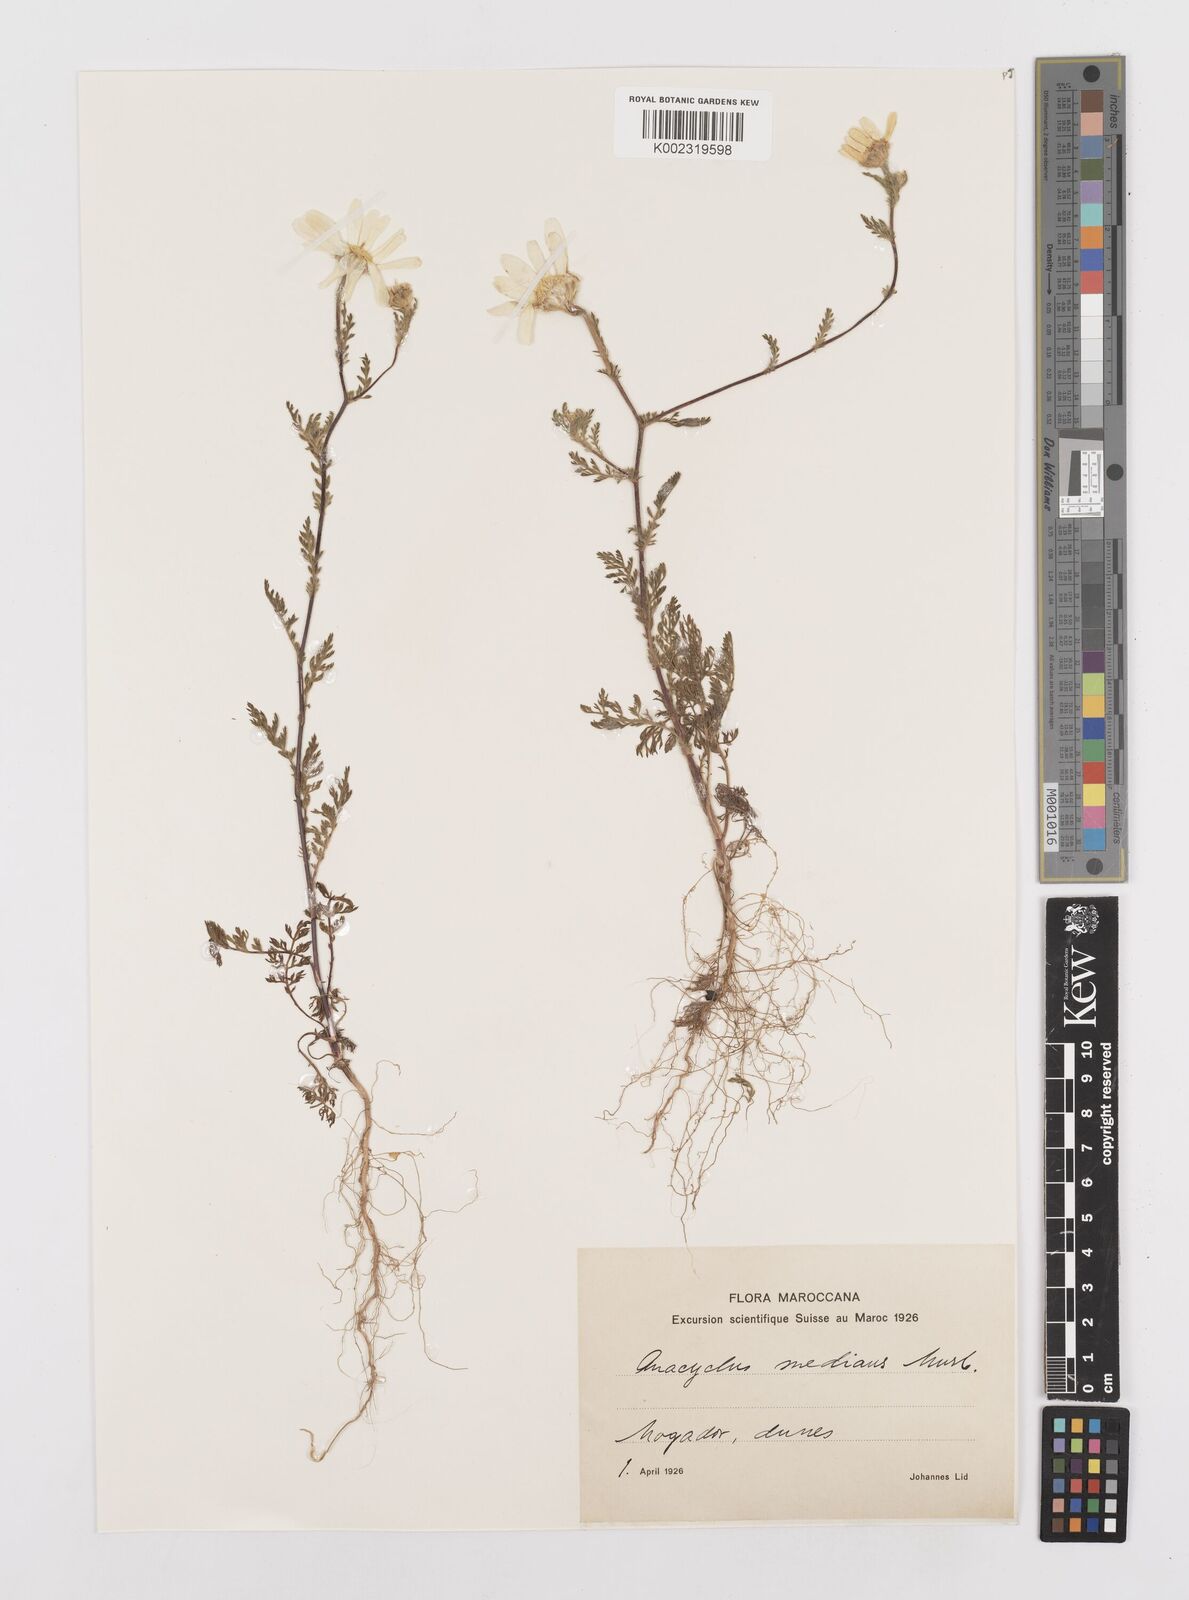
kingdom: Plantae
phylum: Tracheophyta
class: Magnoliopsida
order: Asterales
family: Asteraceae
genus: Anacyclus
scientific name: Anacyclus radiatus
